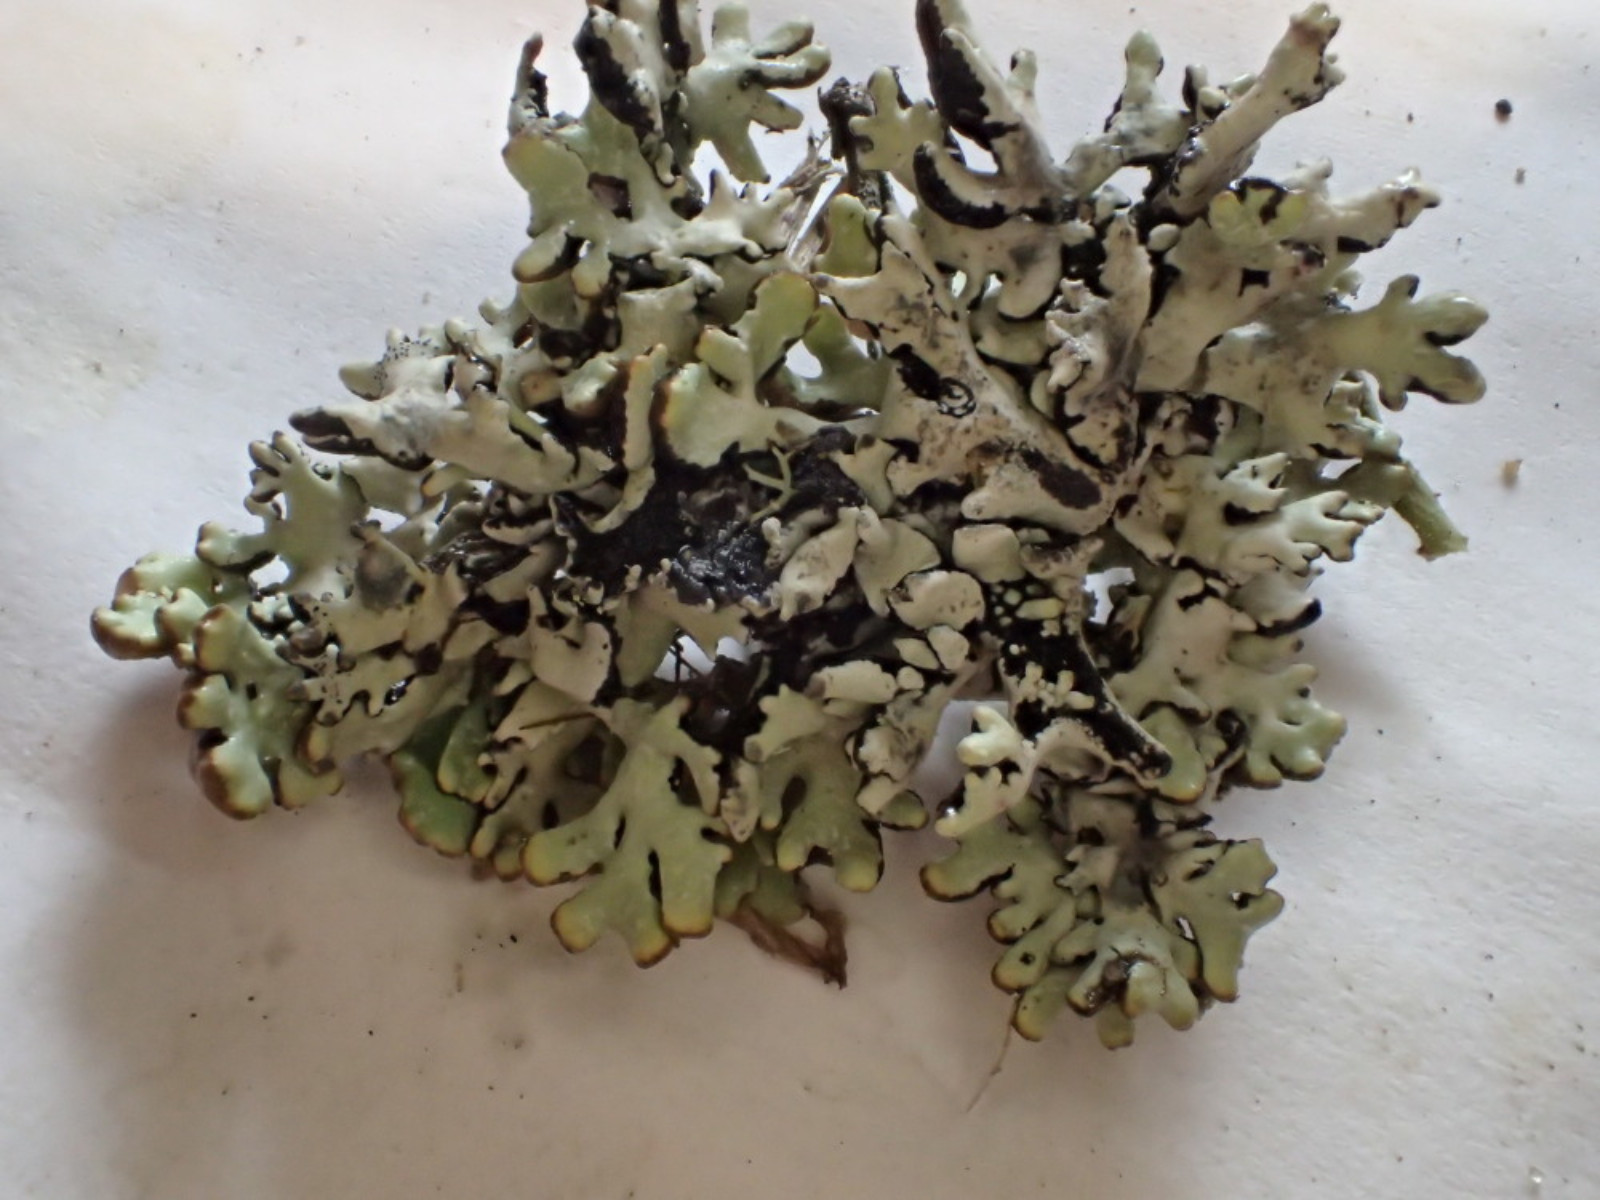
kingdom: Fungi
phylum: Ascomycota
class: Lecanoromycetes
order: Lecanorales
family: Parmeliaceae
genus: Hypogymnia
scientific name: Hypogymnia physodes
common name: almindelig kvistlav
